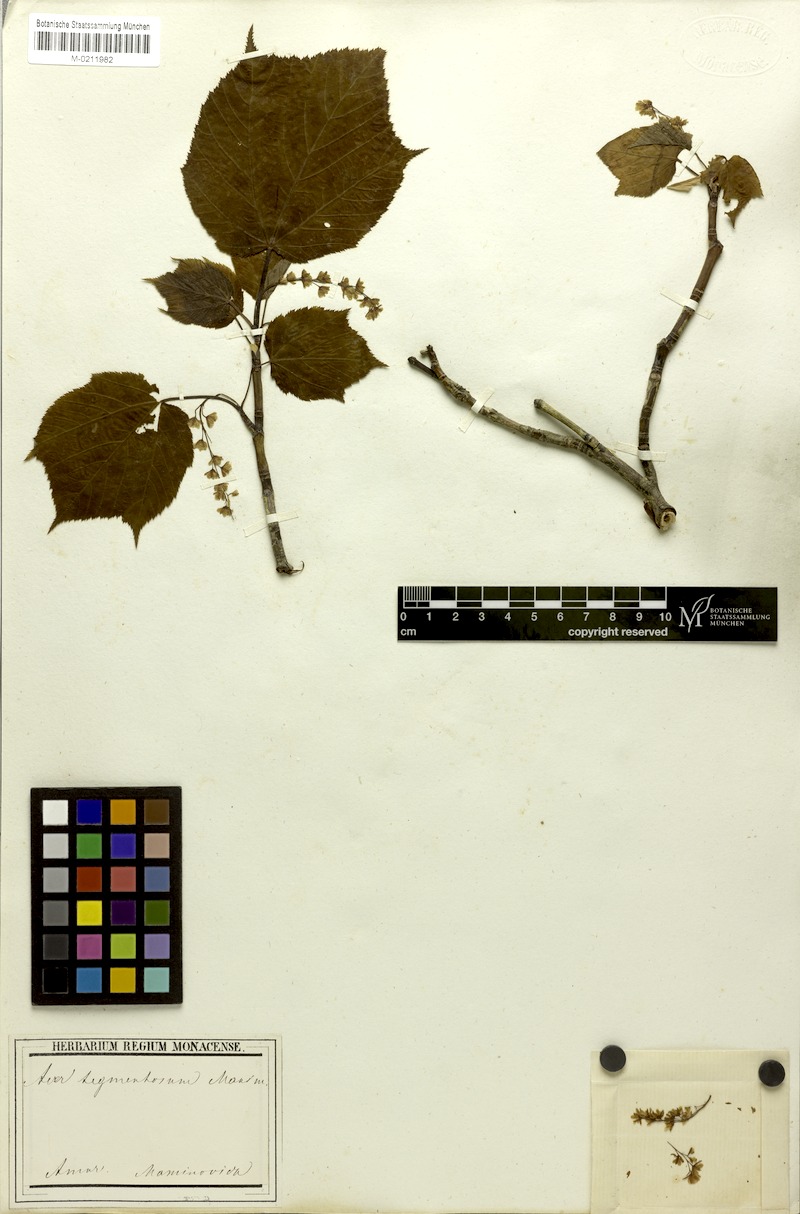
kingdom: Plantae
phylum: Tracheophyta
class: Magnoliopsida
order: Sapindales
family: Sapindaceae
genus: Acer
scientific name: Acer tegmentosum
